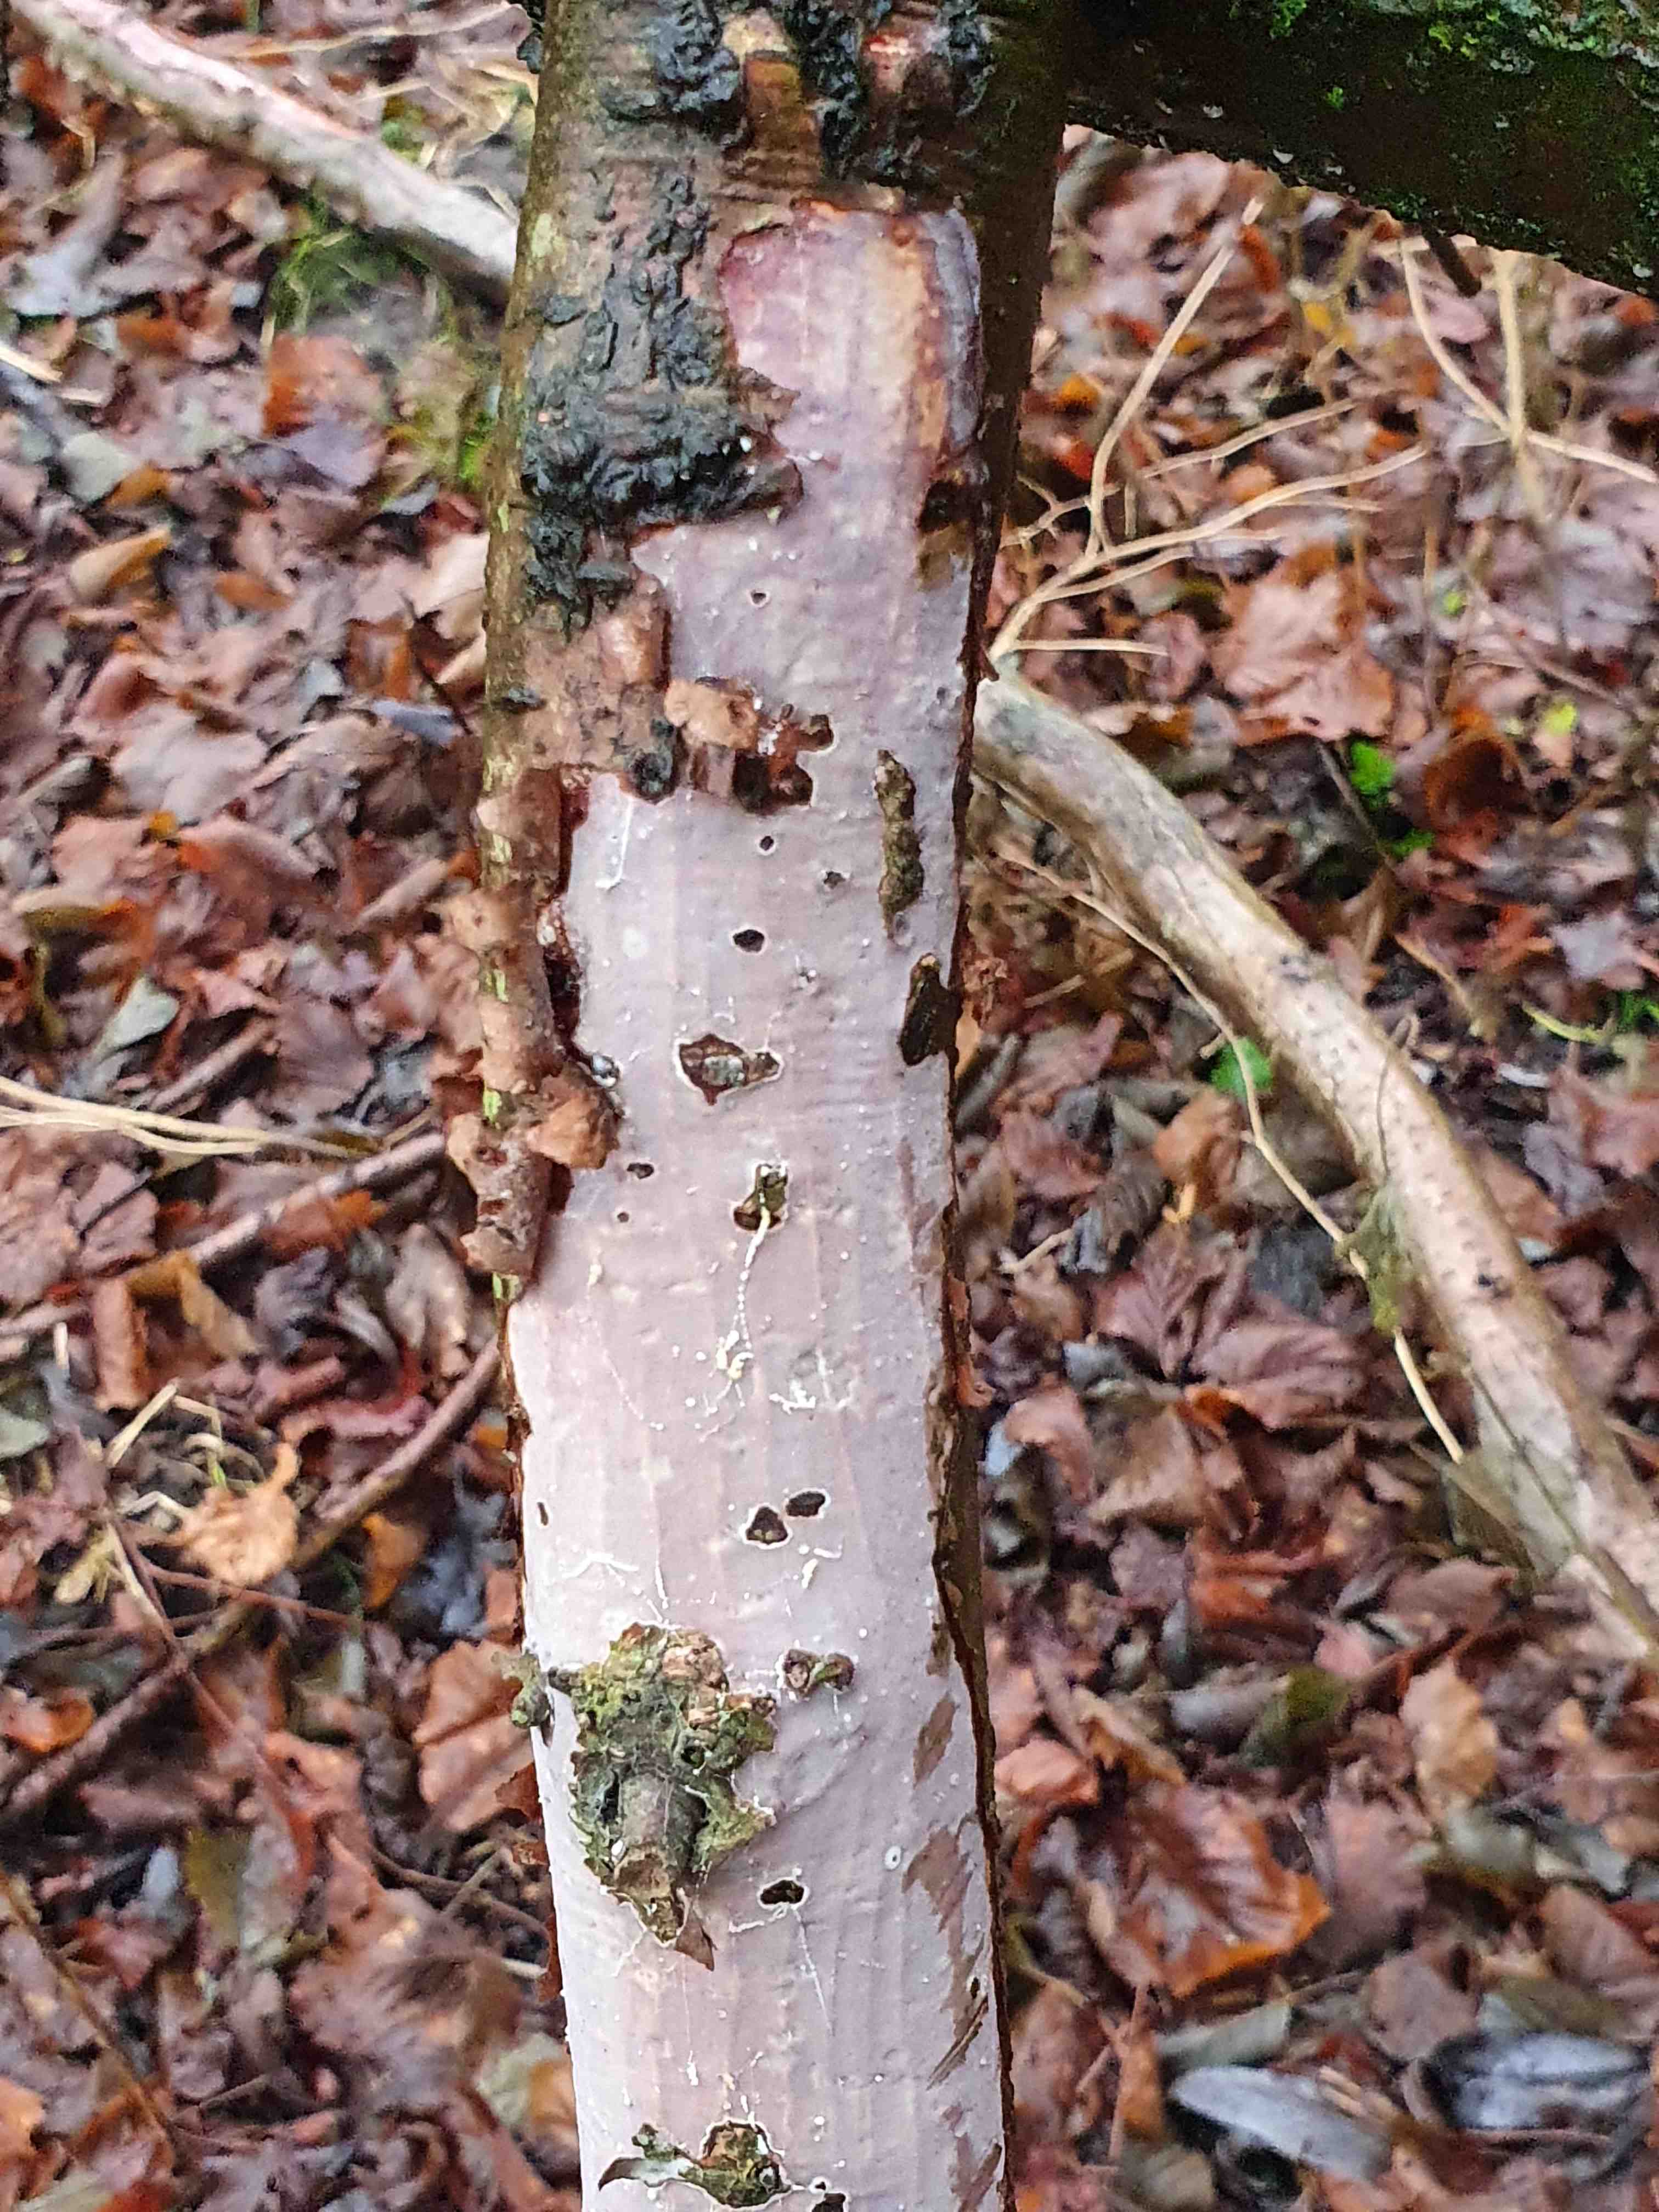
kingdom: Fungi
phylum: Basidiomycota
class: Agaricomycetes
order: Corticiales
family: Vuilleminiaceae
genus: Vuilleminia
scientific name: Vuilleminia coryli
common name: hassel-barksprænger
